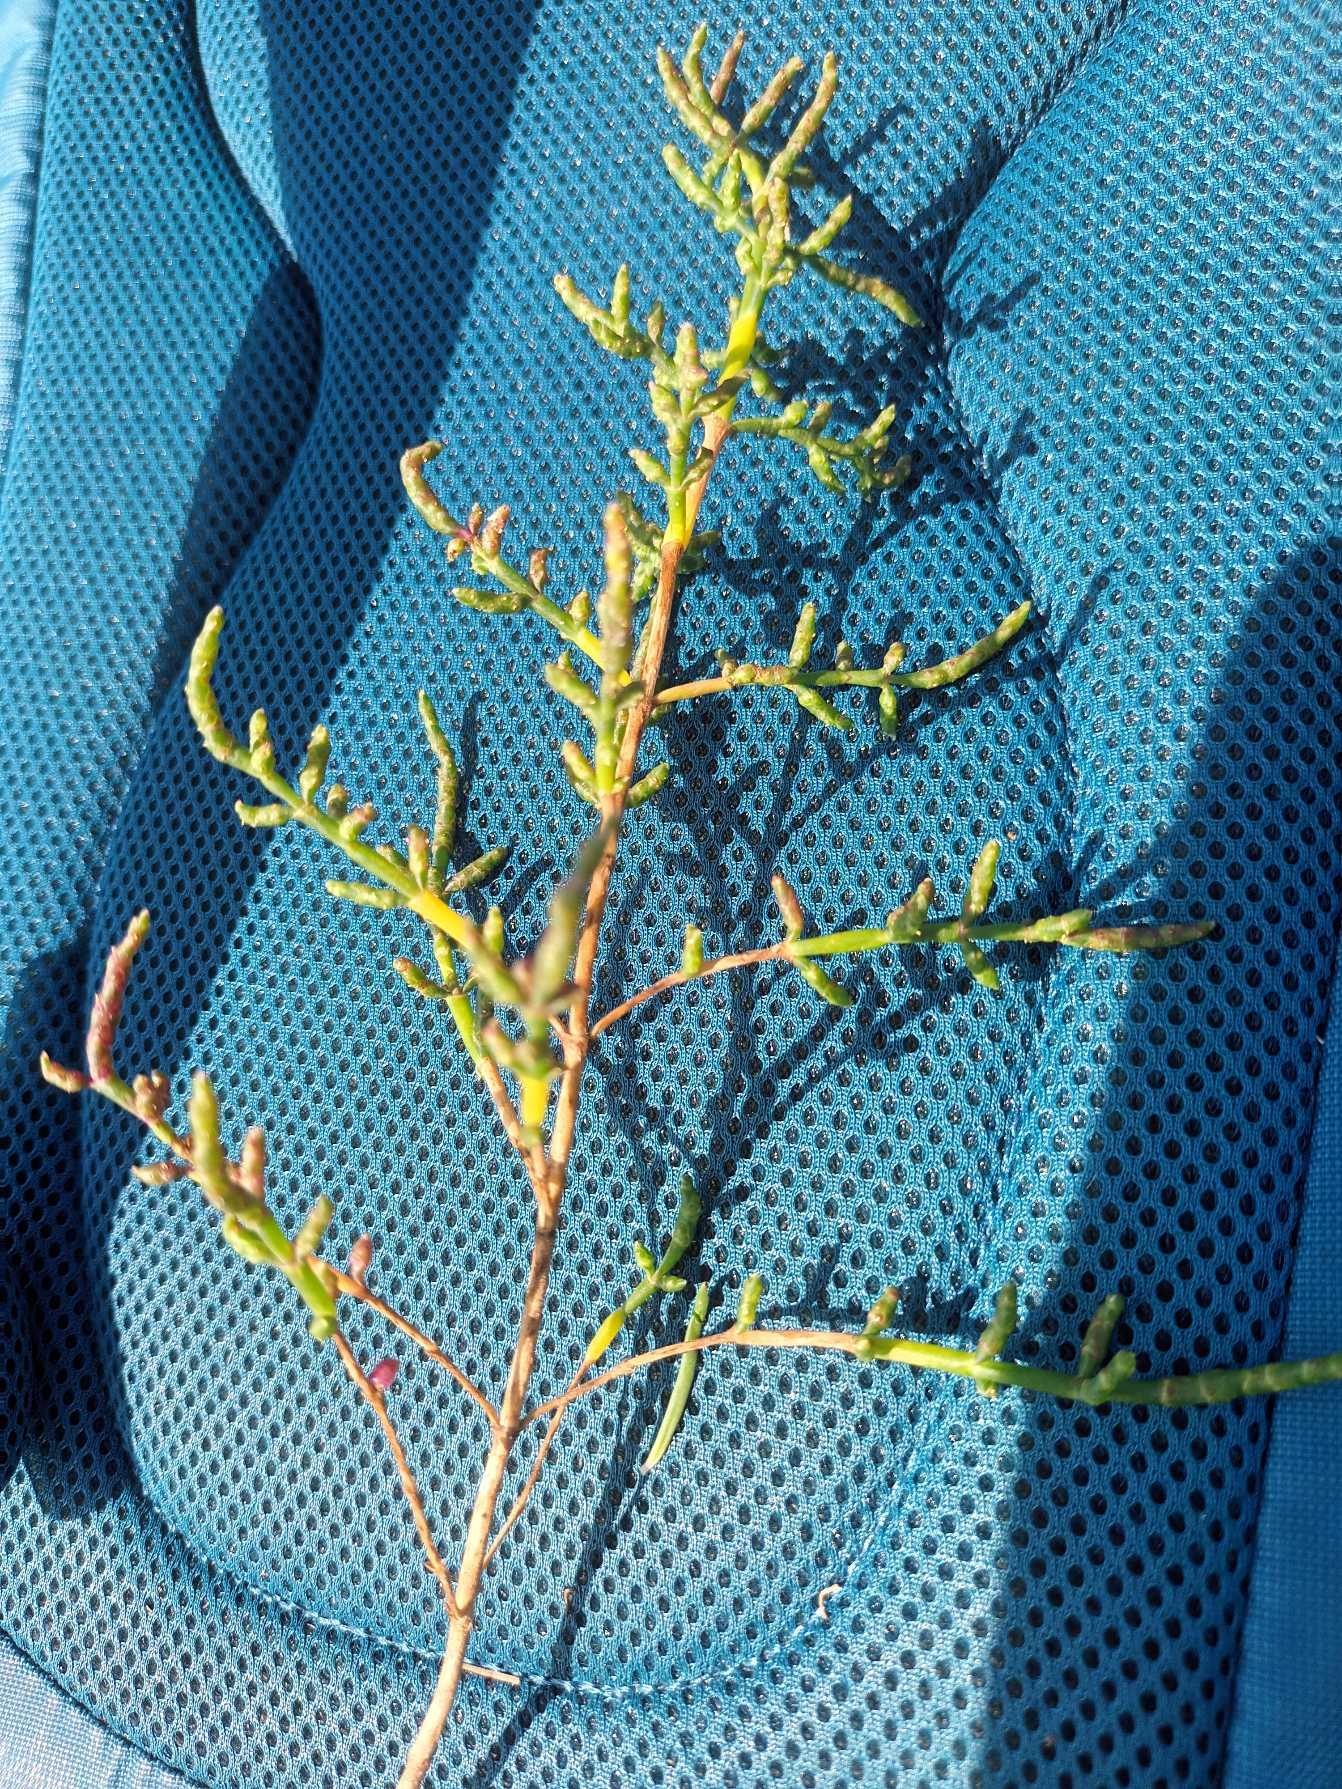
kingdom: Plantae
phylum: Tracheophyta
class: Magnoliopsida
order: Caryophyllales
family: Amaranthaceae
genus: Salicornia
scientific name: Salicornia europaea
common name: Almindelig salturt
